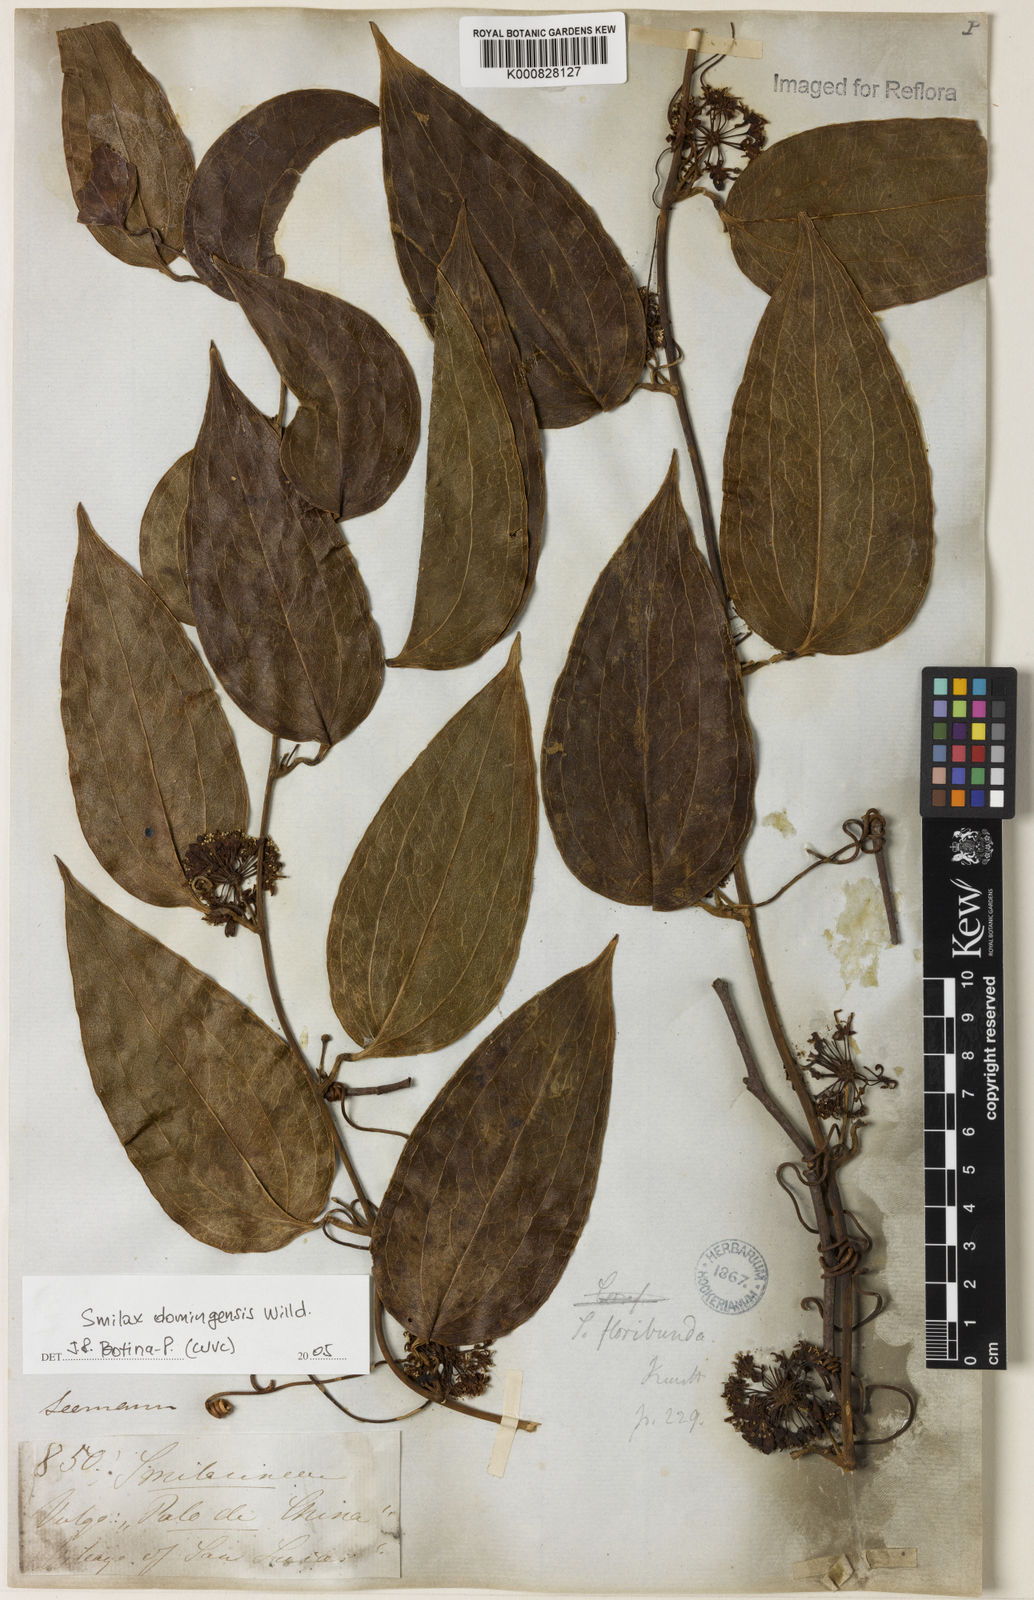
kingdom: Plantae
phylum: Tracheophyta
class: Liliopsida
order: Liliales
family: Smilacaceae
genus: Smilax
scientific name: Smilax domingensis
